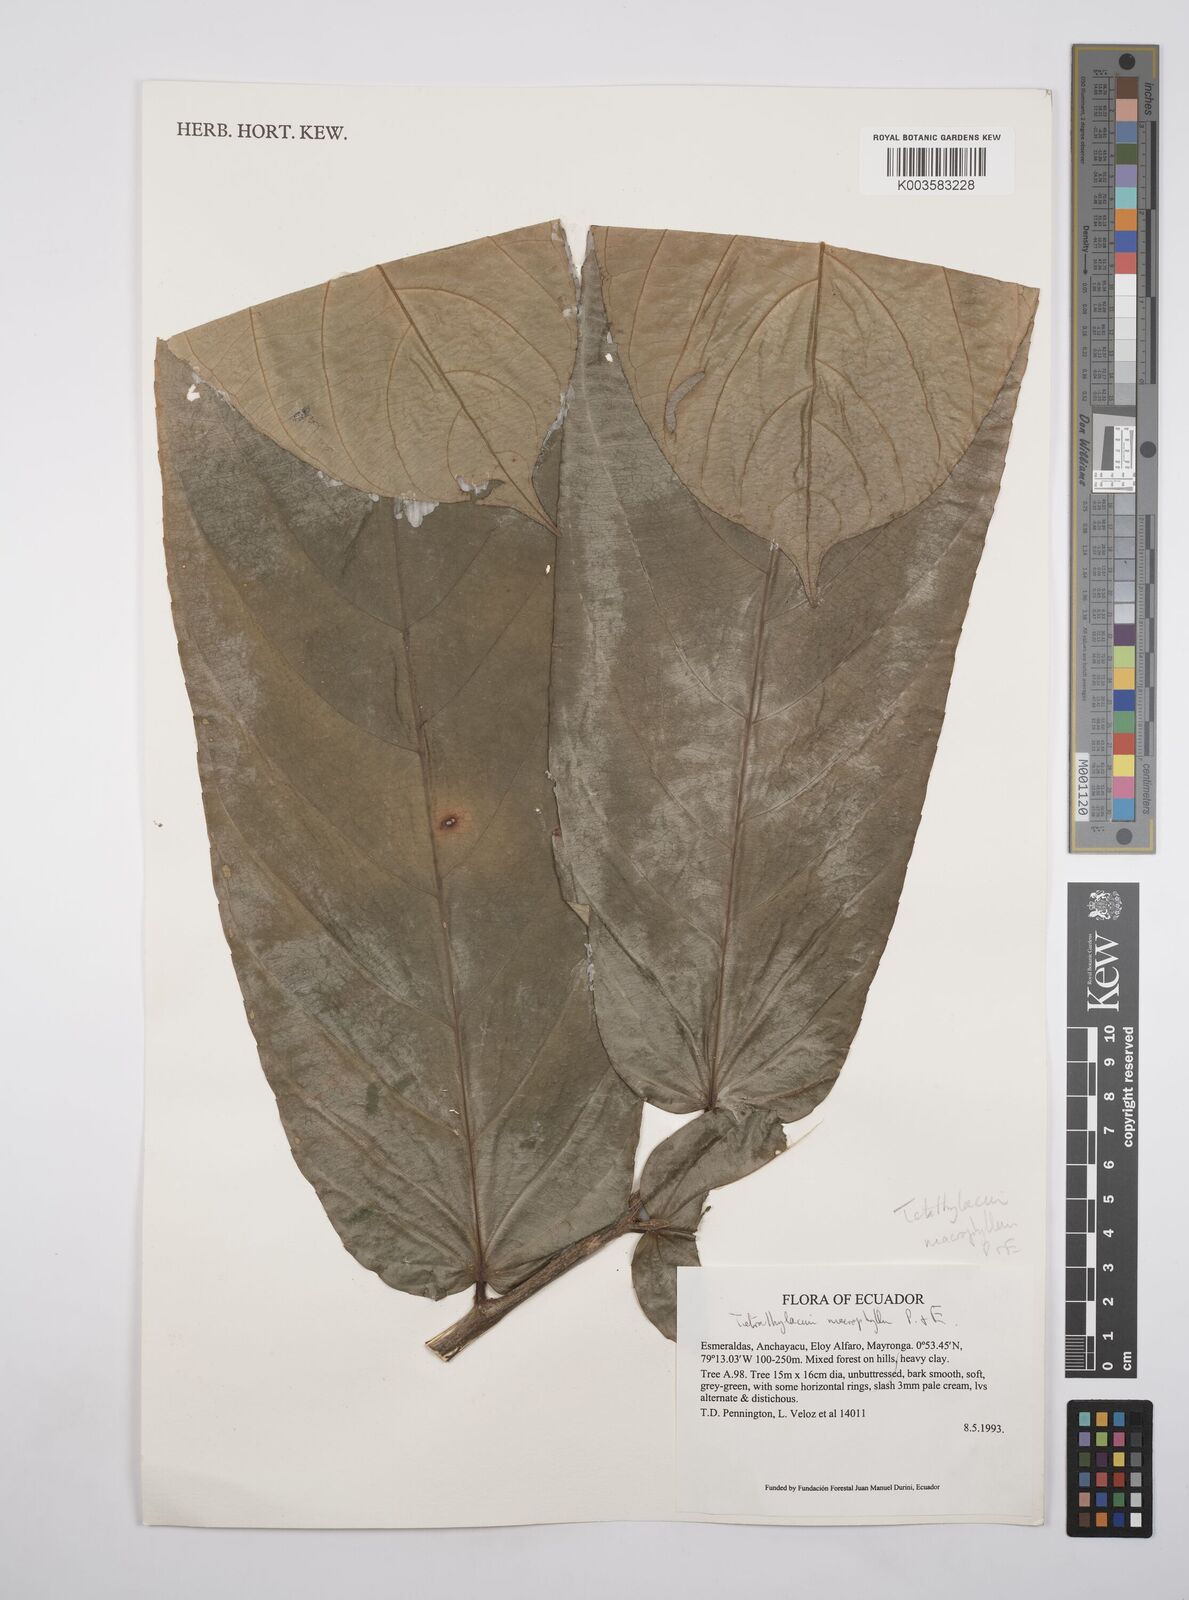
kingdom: Plantae
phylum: Tracheophyta
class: Magnoliopsida
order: Malpighiales
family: Salicaceae
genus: Tetrathylacium
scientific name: Tetrathylacium macrophyllum
